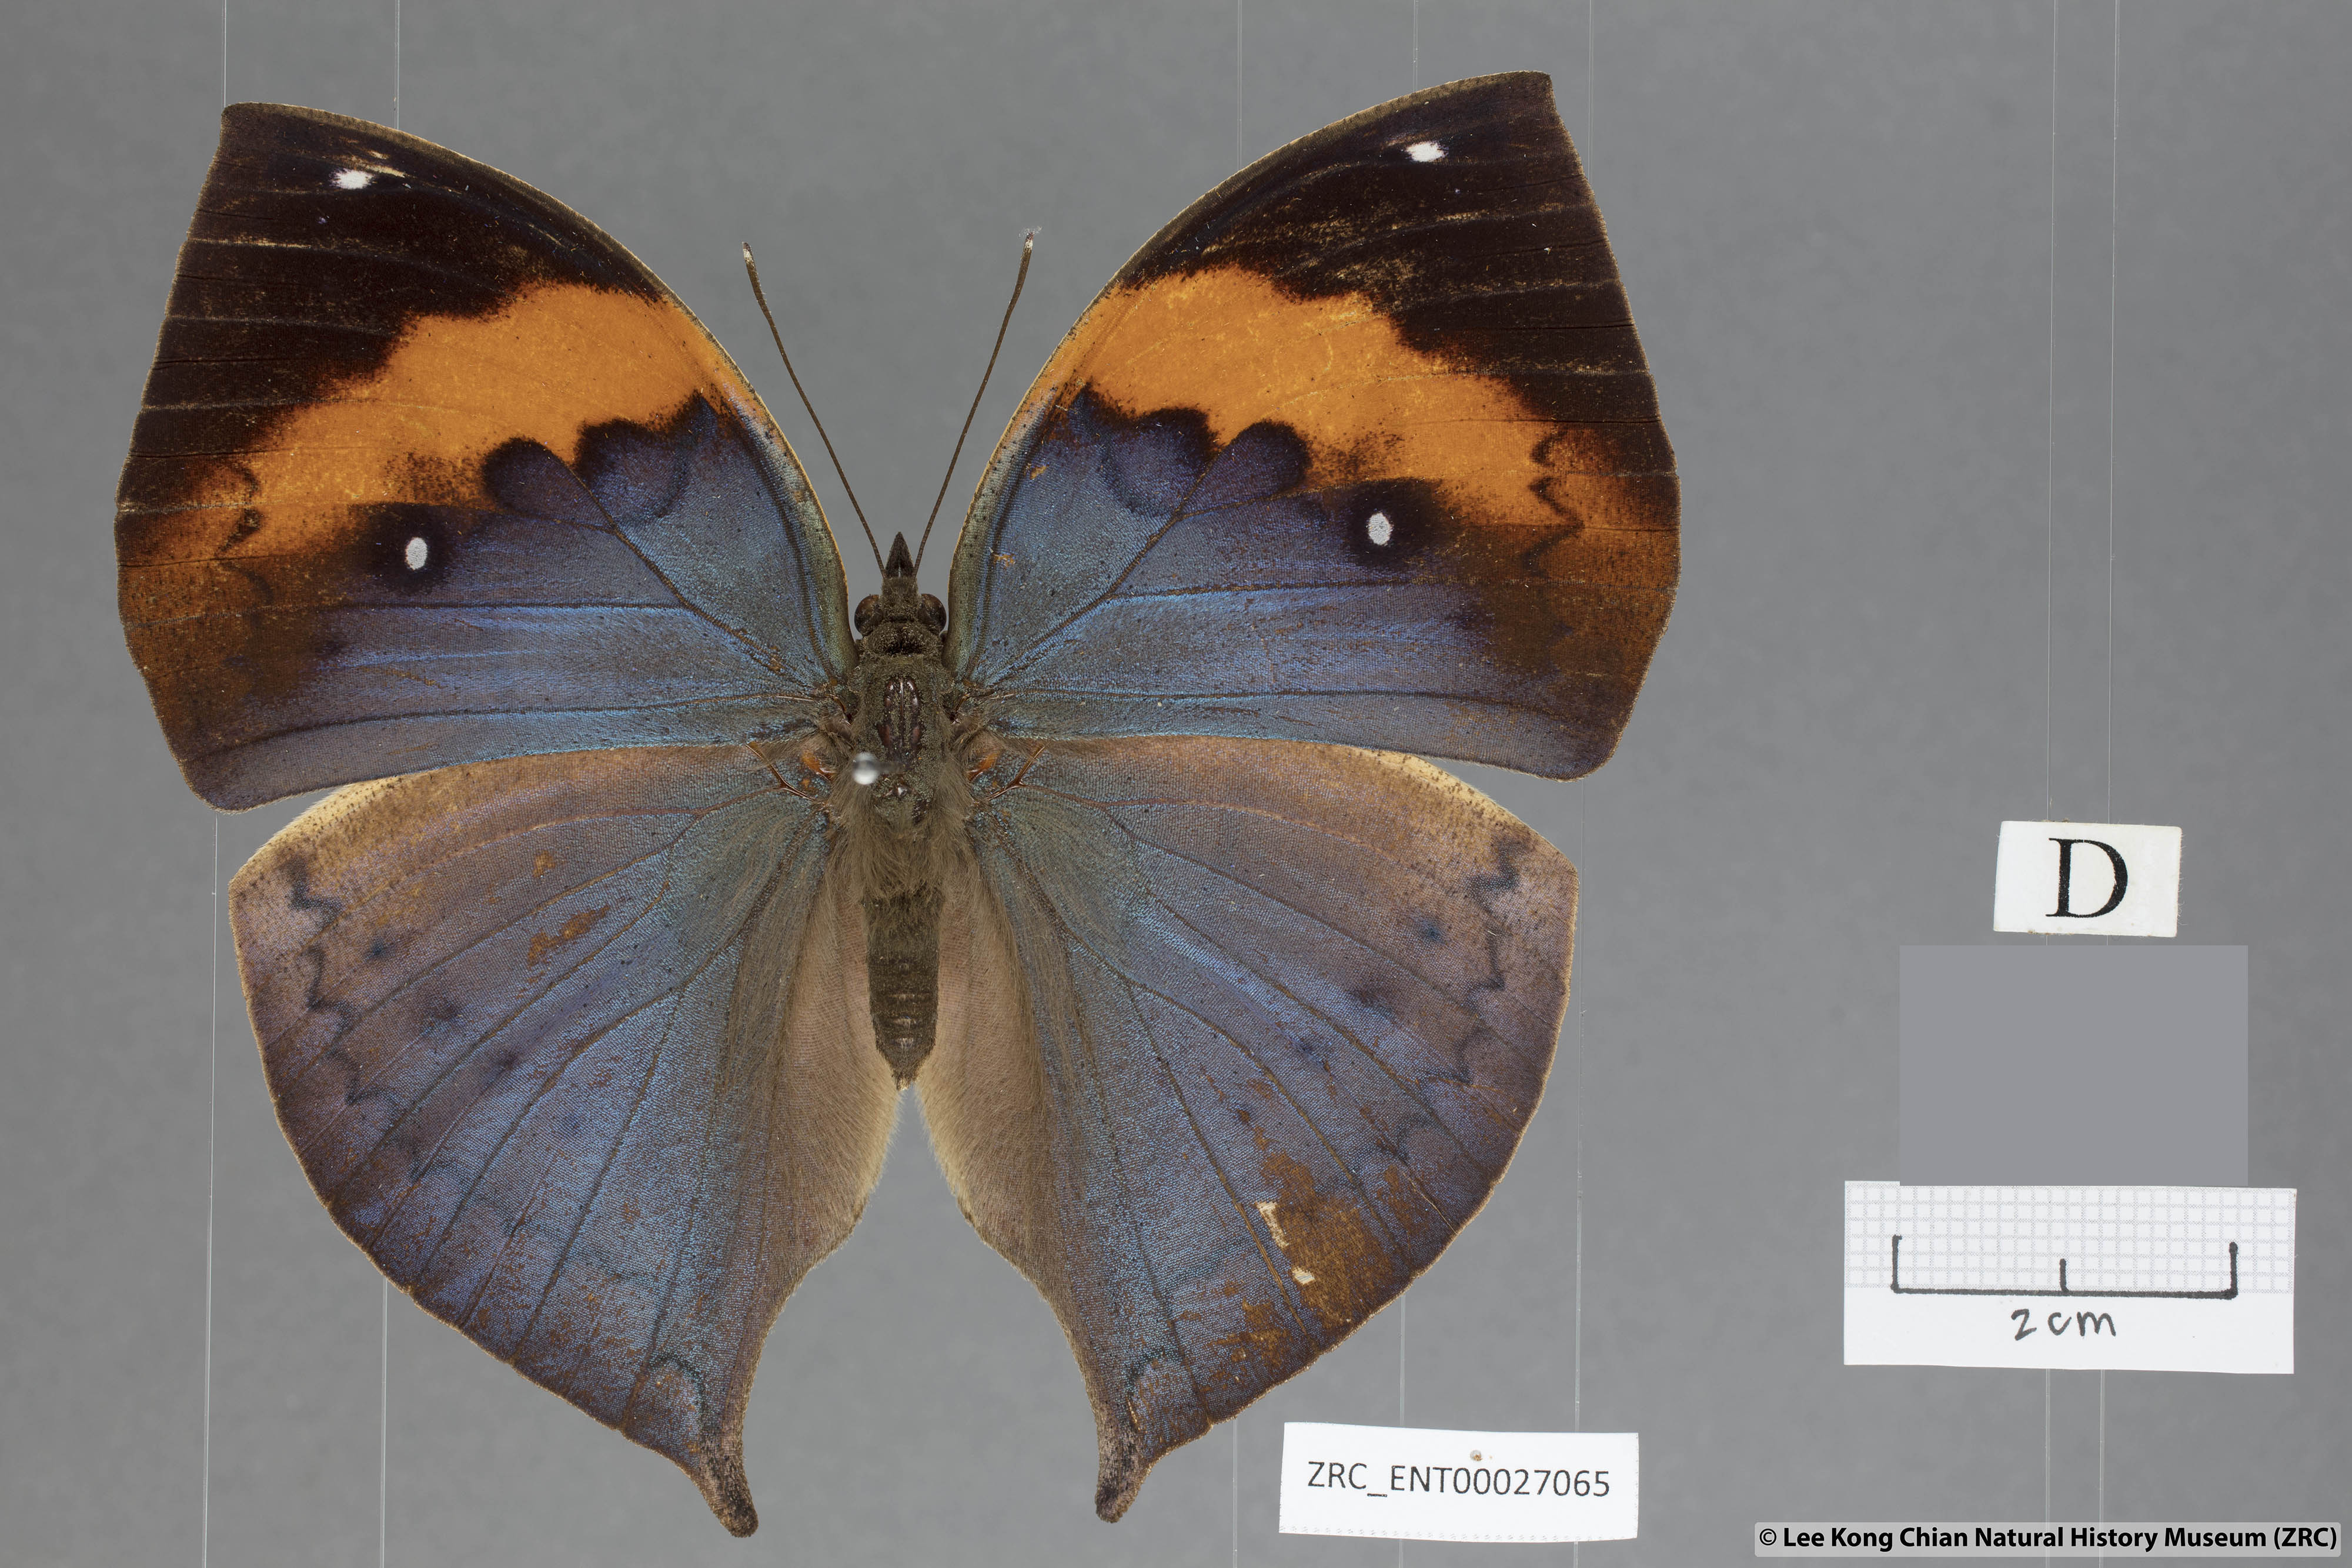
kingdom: Animalia
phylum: Arthropoda
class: Insecta
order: Lepidoptera
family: Nymphalidae
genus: Kallima
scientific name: Kallima paralekta
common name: Indian leafwing
